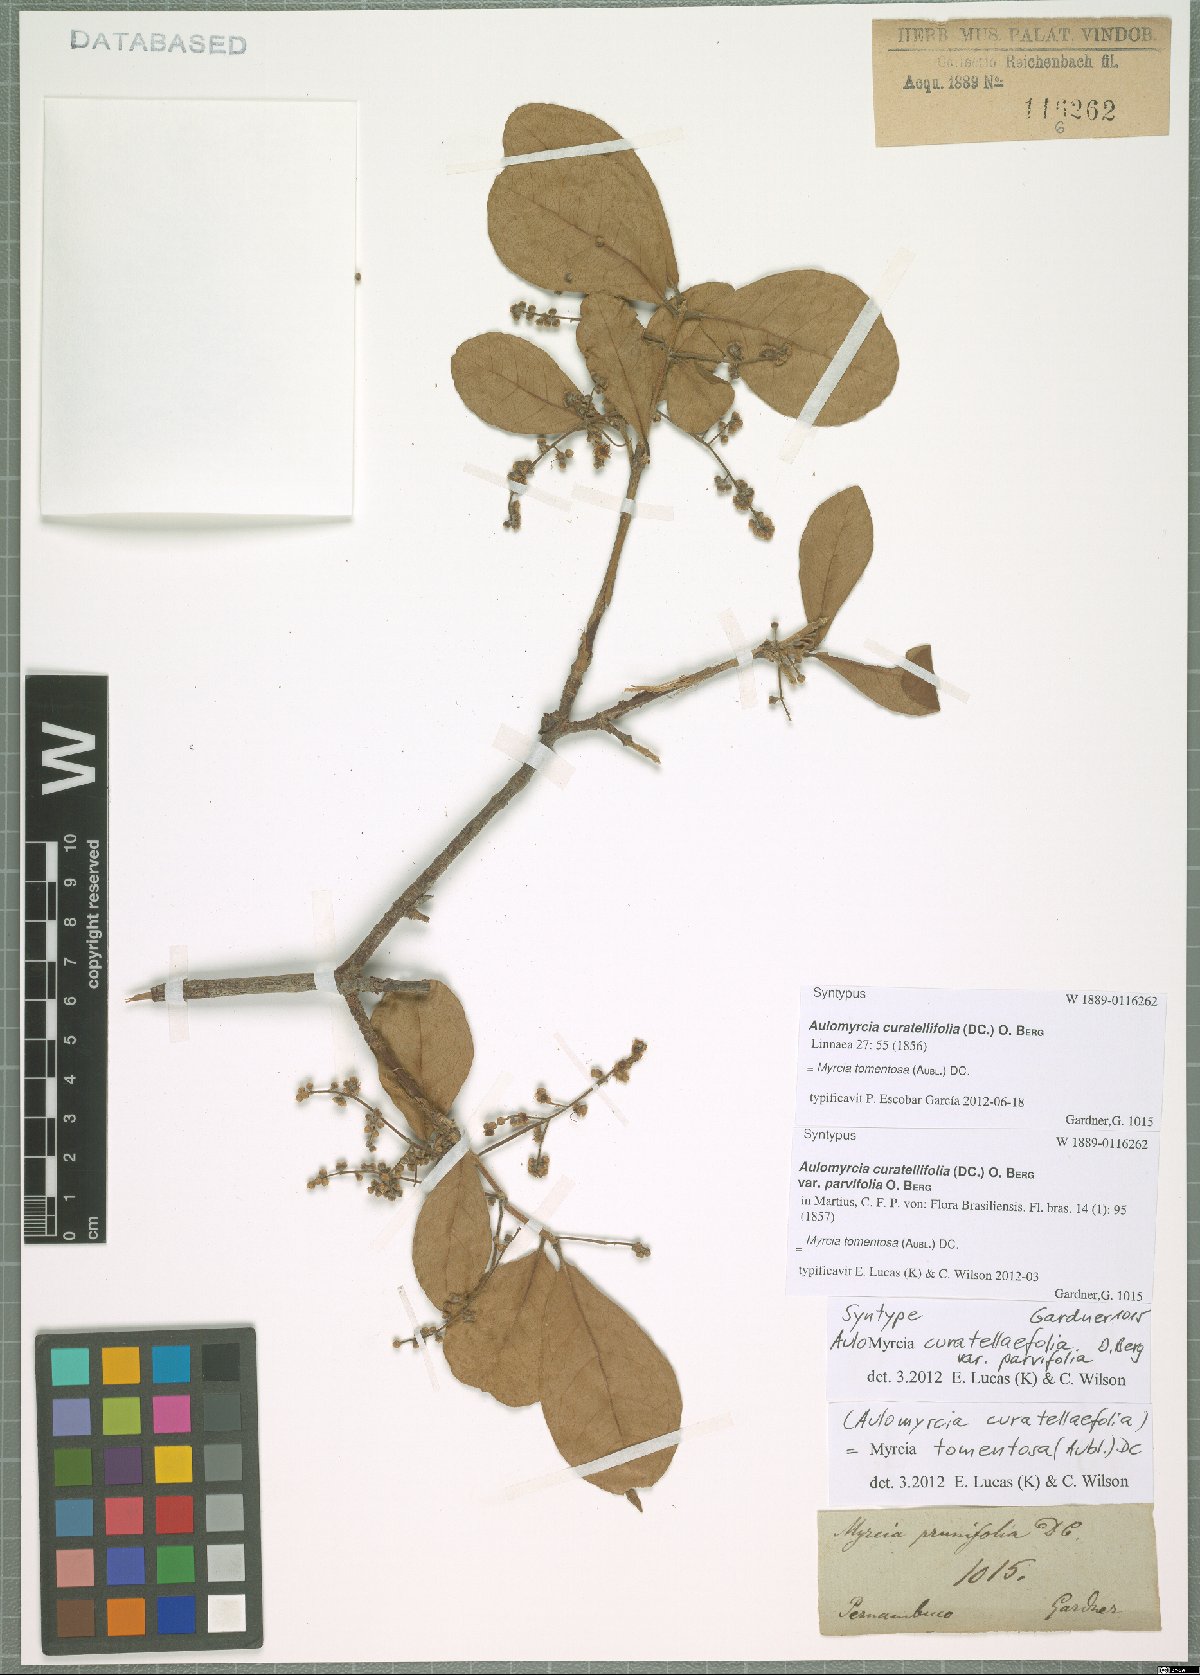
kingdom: Plantae
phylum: Tracheophyta
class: Magnoliopsida
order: Myrtales
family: Myrtaceae
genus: Myrcia
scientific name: Myrcia tomentosa
